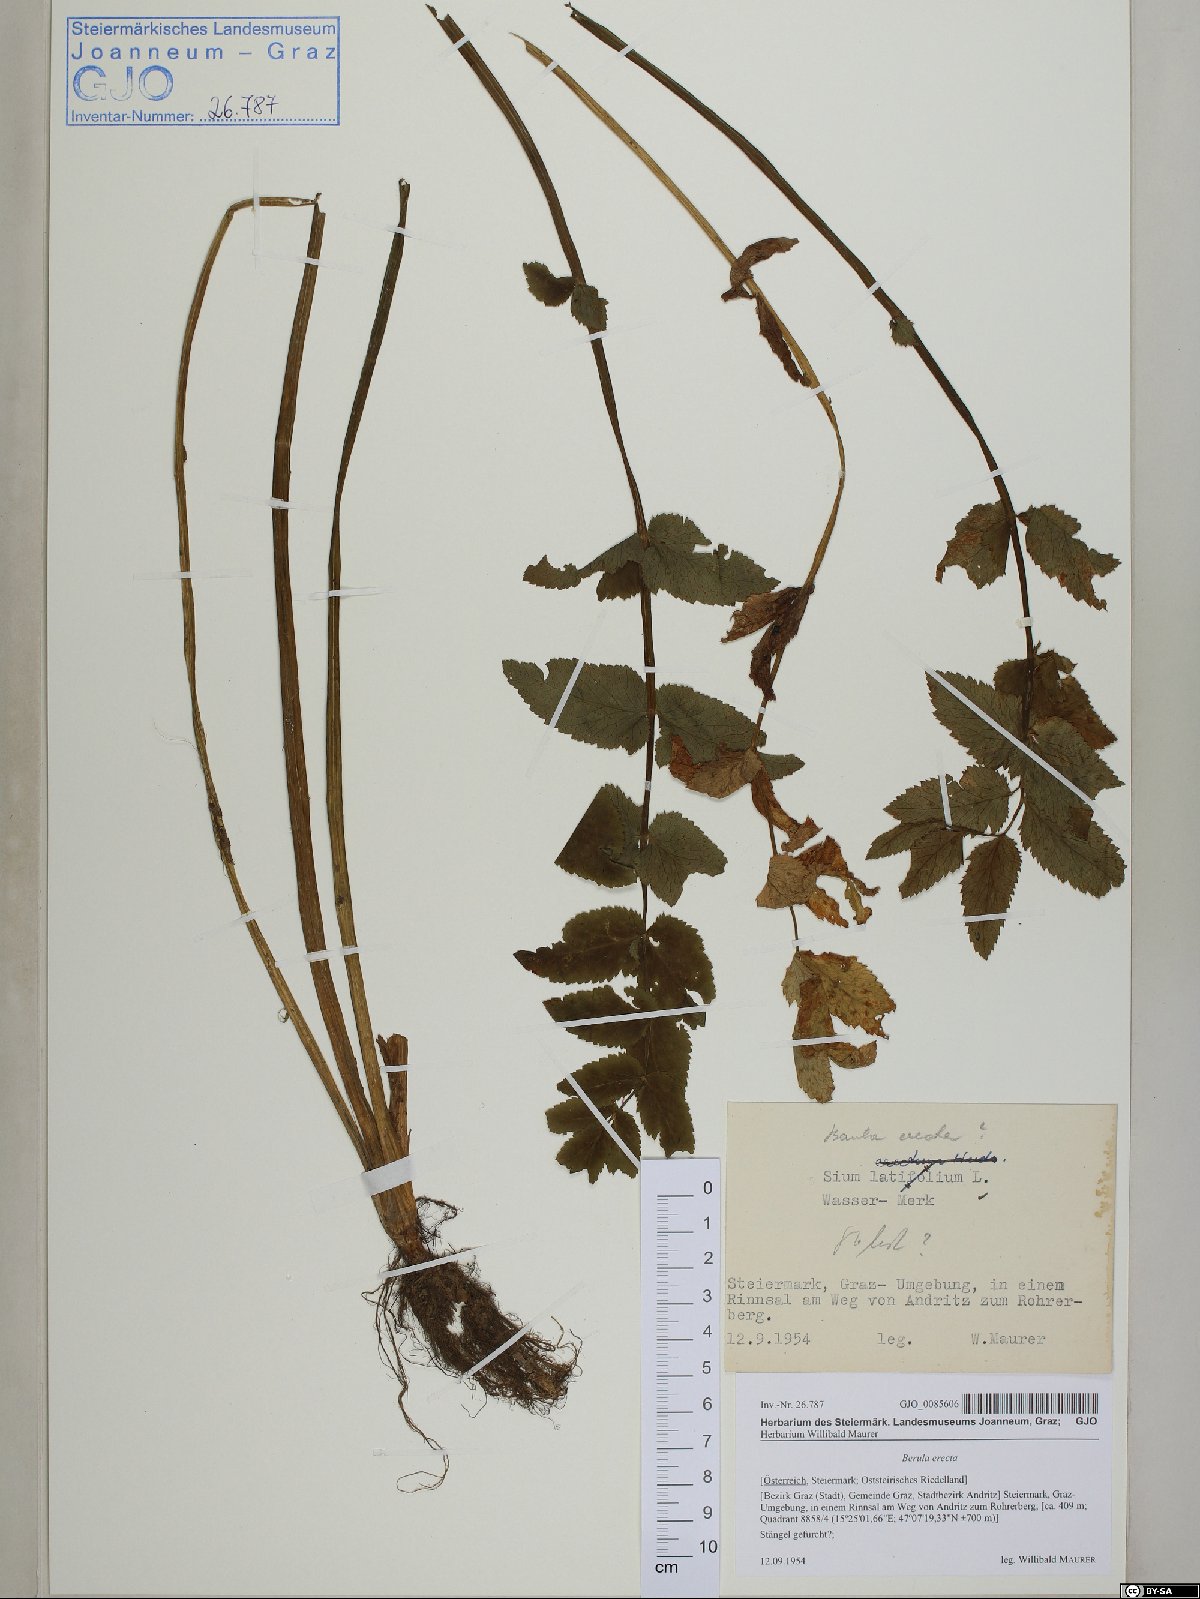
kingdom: Plantae
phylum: Tracheophyta
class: Magnoliopsida
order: Apiales
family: Apiaceae
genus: Berula
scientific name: Berula erecta
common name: Lesser water-parsnip
